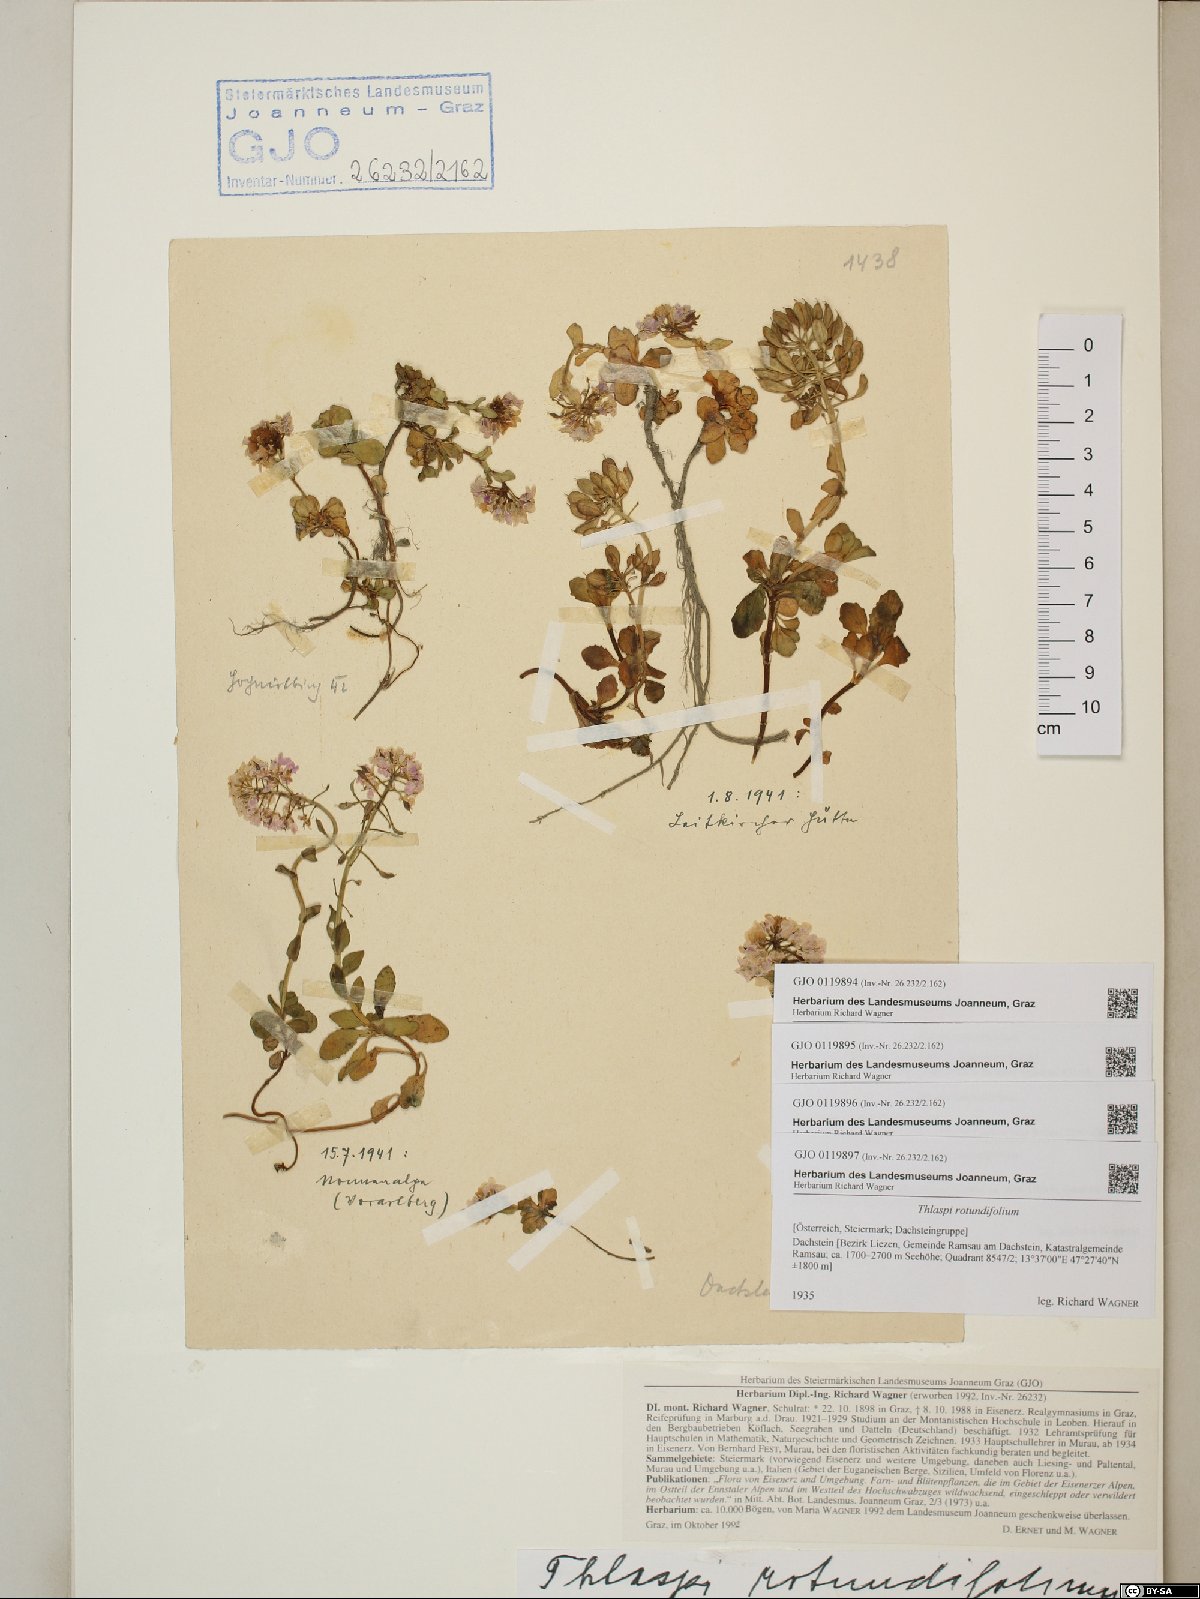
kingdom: Plantae
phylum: Tracheophyta
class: Magnoliopsida
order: Brassicales
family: Brassicaceae
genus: Noccaea
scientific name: Noccaea rotundifolia
